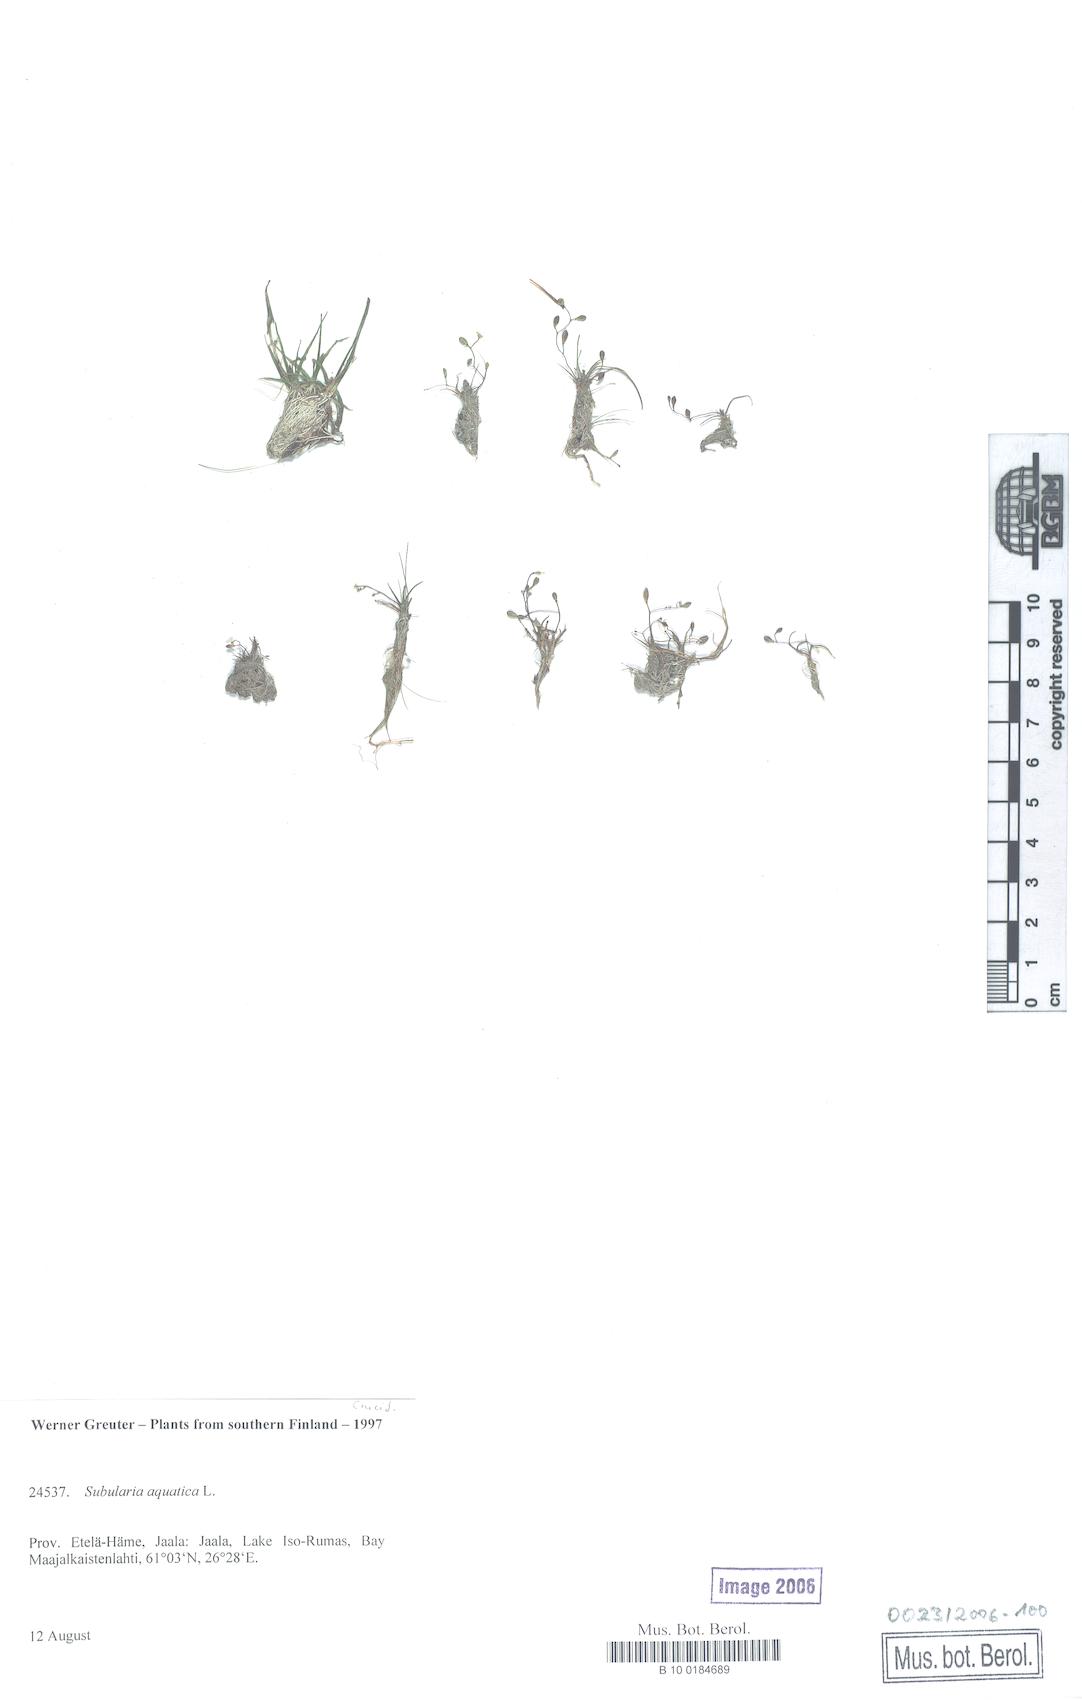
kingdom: Plantae
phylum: Tracheophyta
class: Magnoliopsida
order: Brassicales
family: Brassicaceae
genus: Subularia
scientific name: Subularia aquatica
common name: Awlwort
